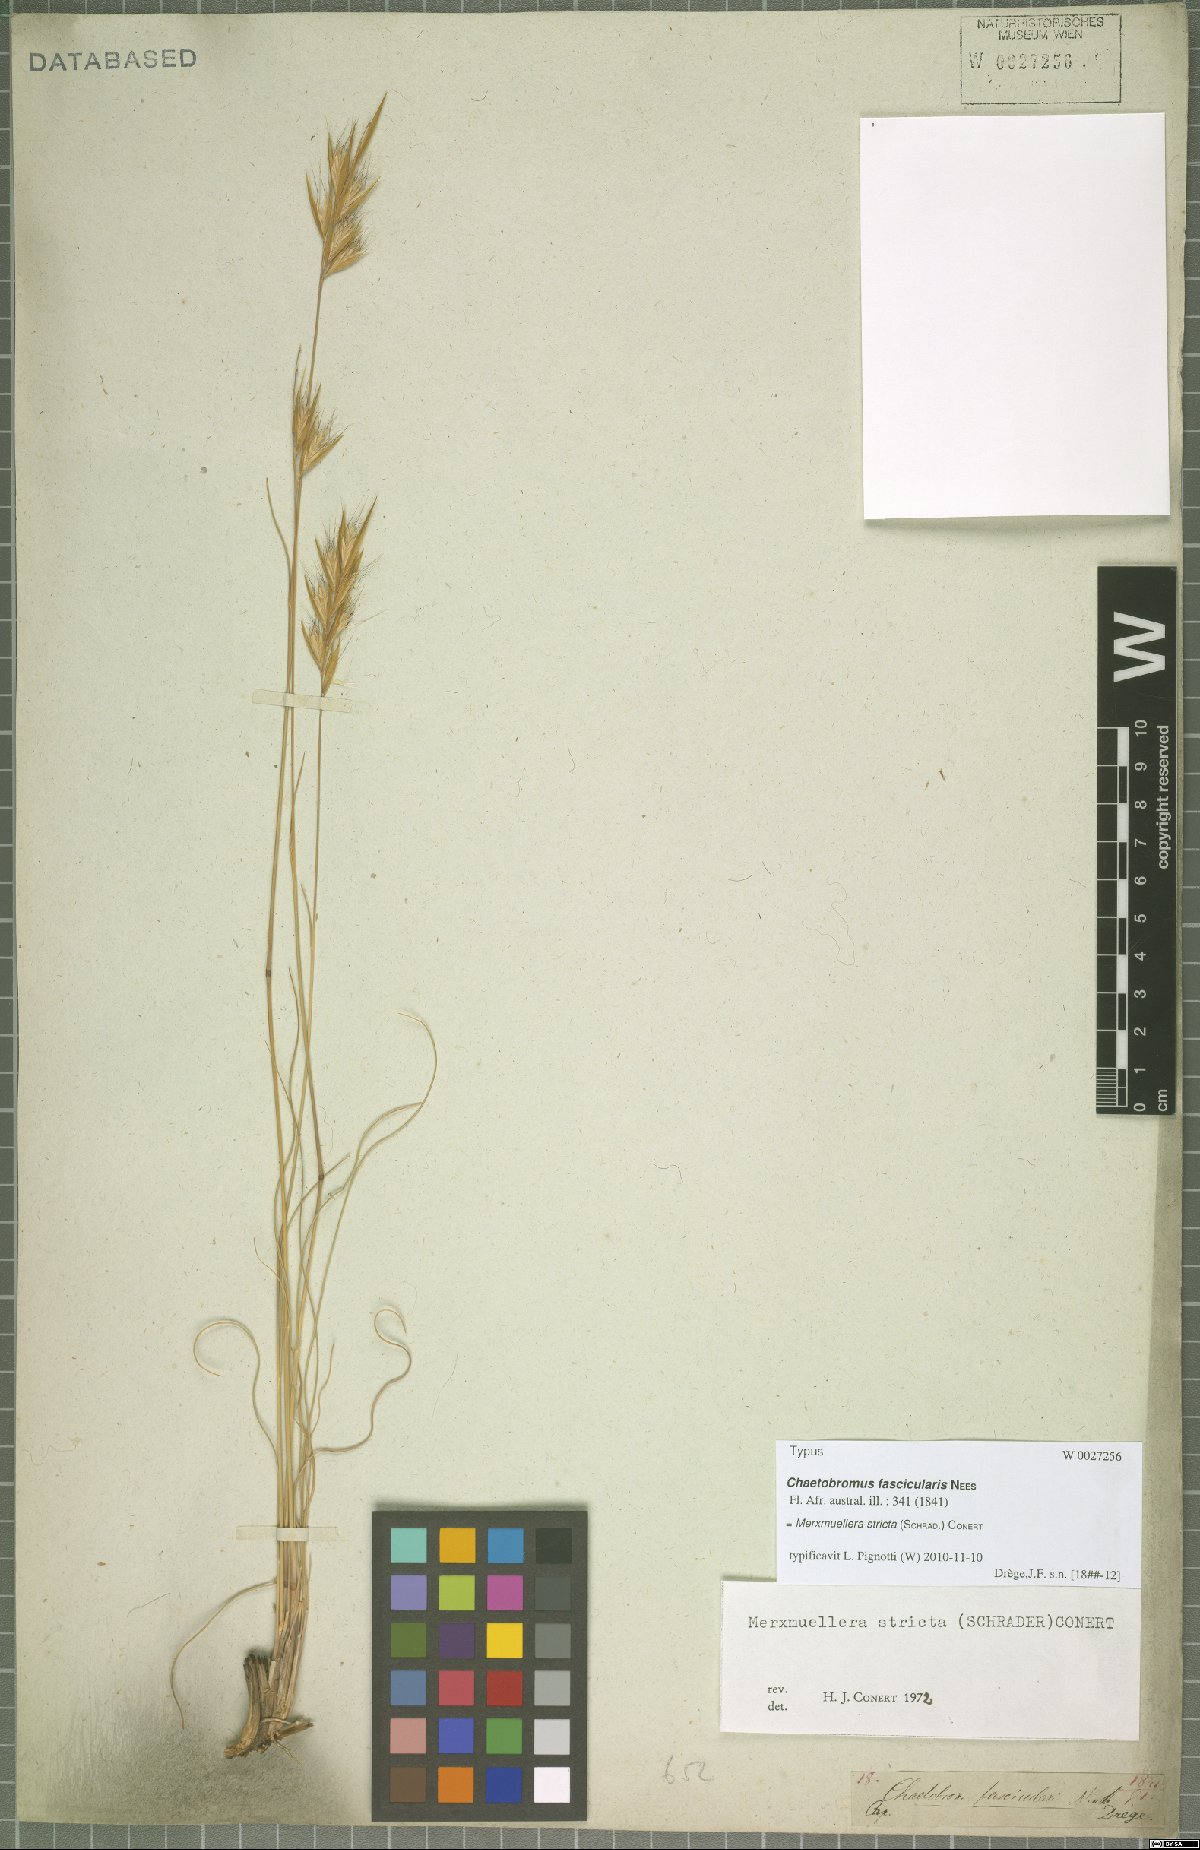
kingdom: Plantae
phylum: Tracheophyta
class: Liliopsida
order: Poales
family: Poaceae
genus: Tenaxia
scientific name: Tenaxia stricta
